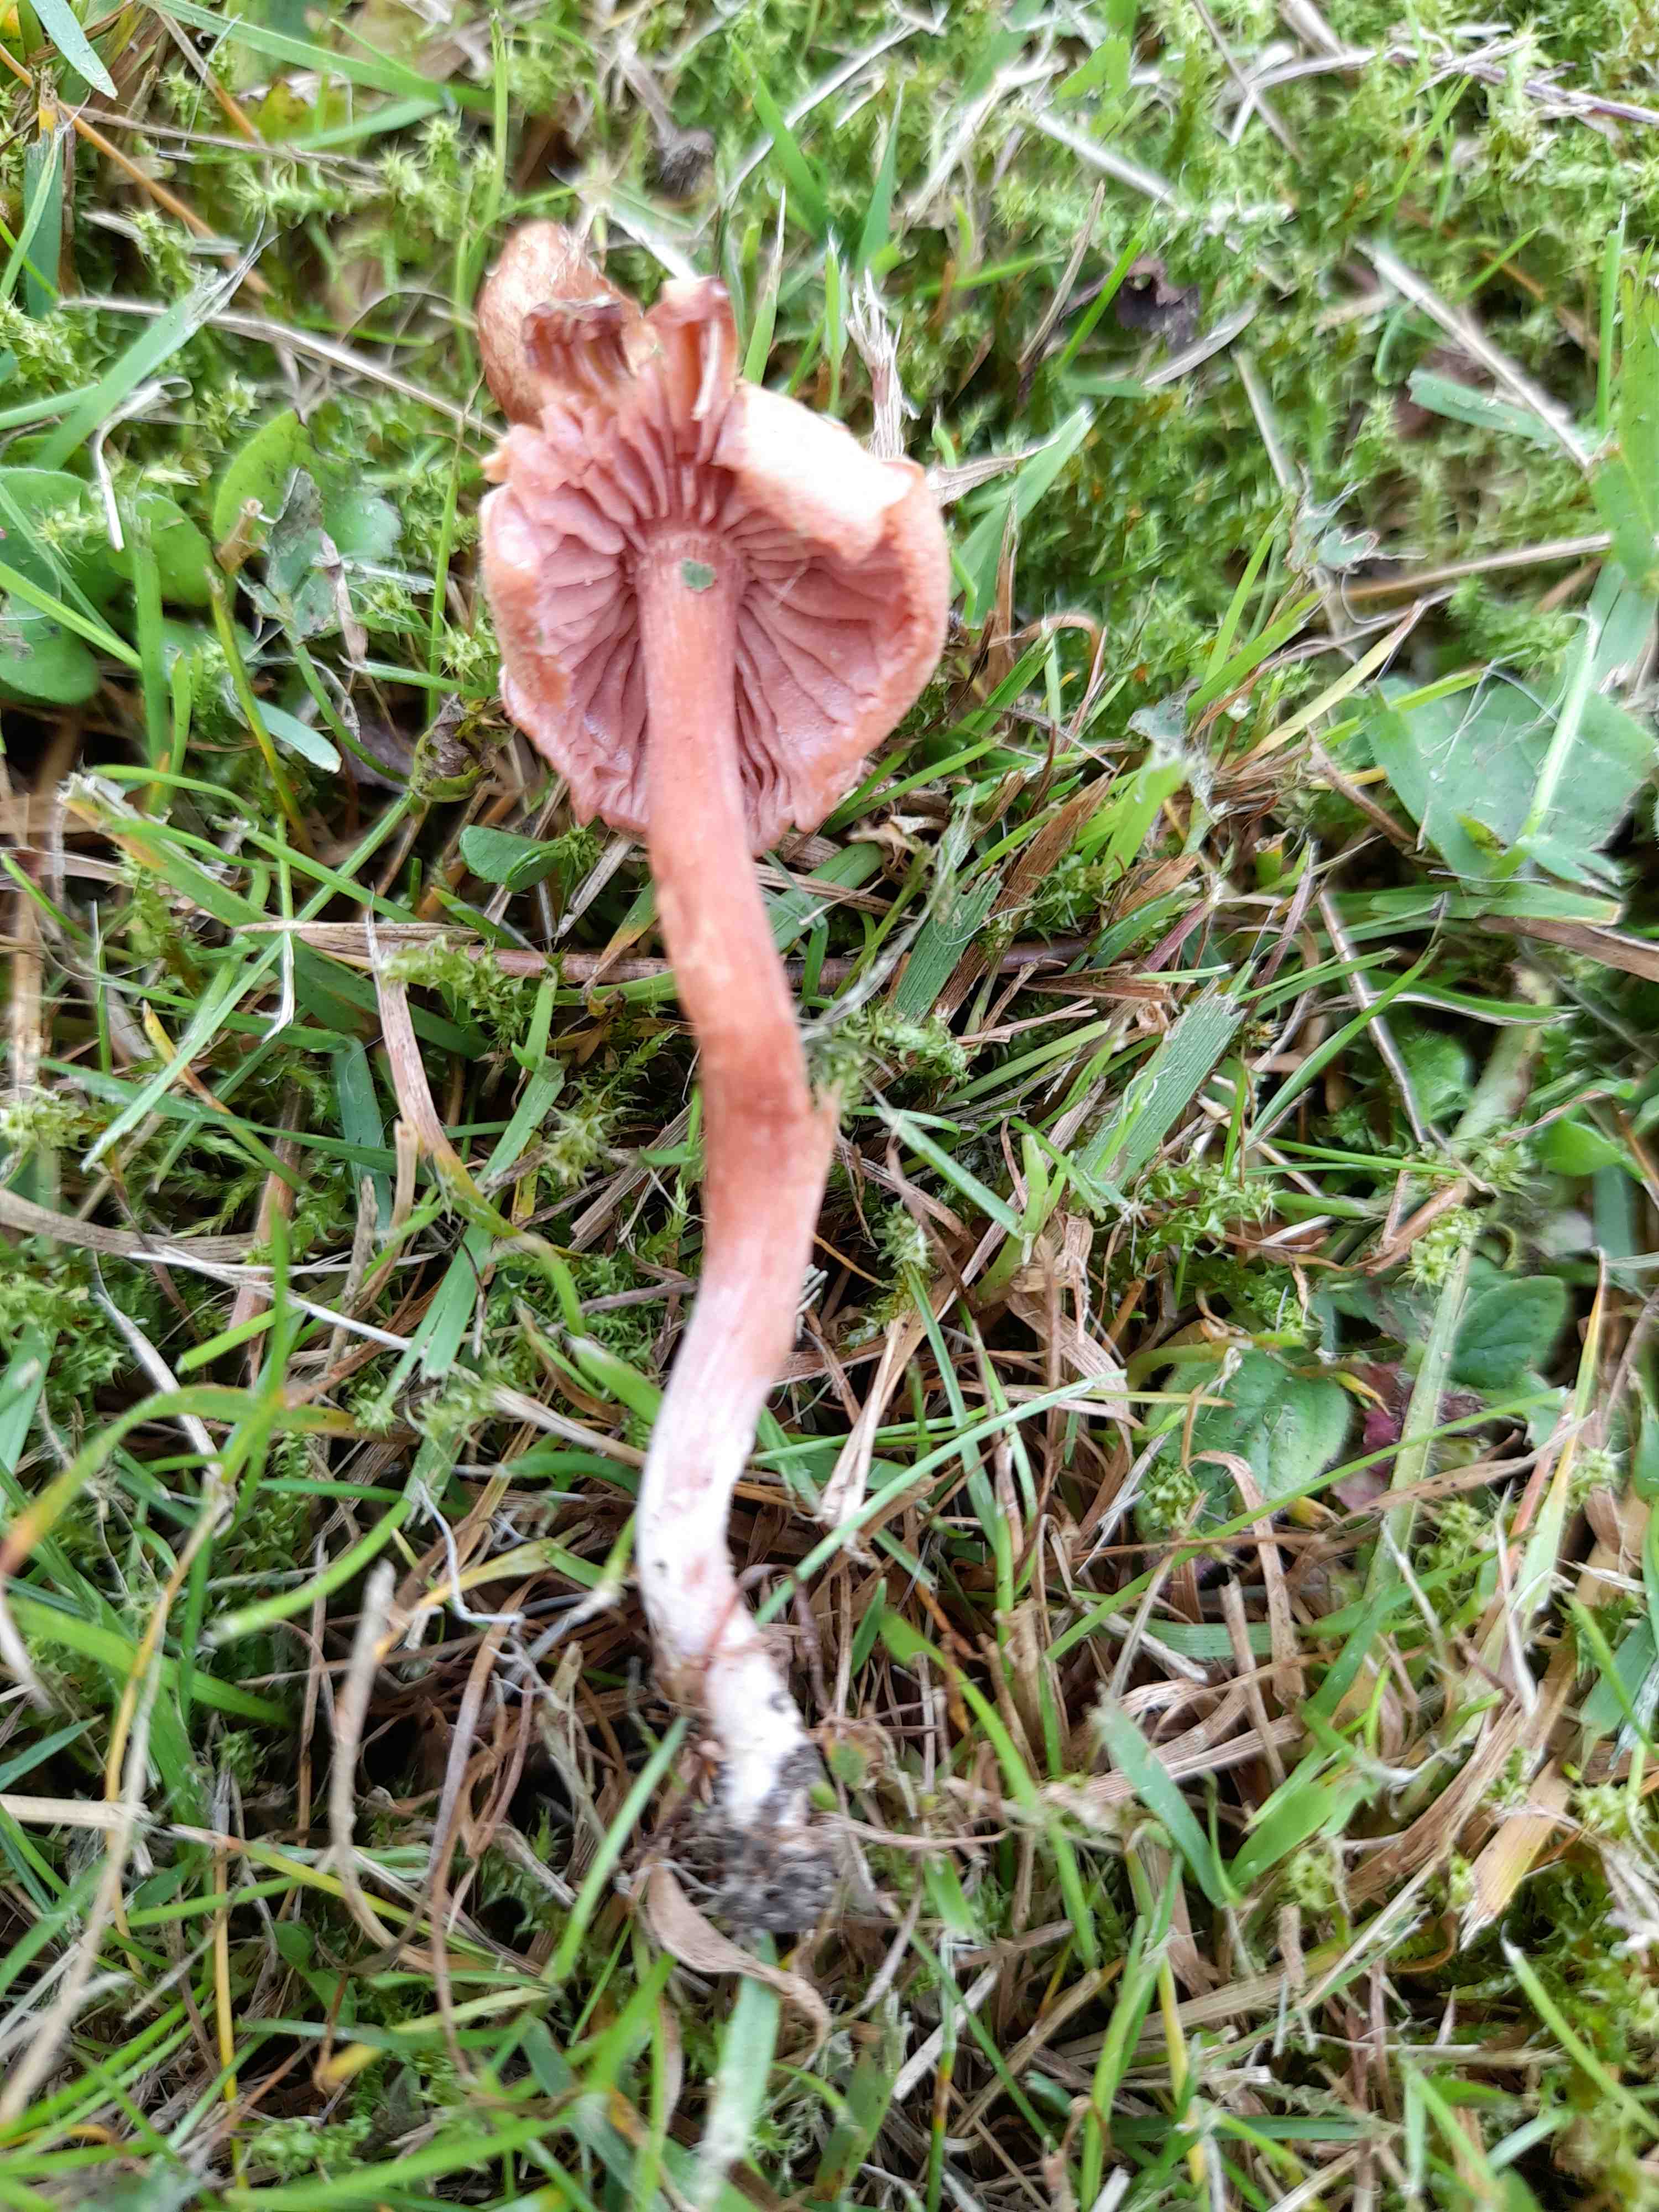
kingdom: Fungi
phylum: Basidiomycota
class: Agaricomycetes
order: Agaricales
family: Hydnangiaceae
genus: Laccaria
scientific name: Laccaria laccata
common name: rød ametysthat
